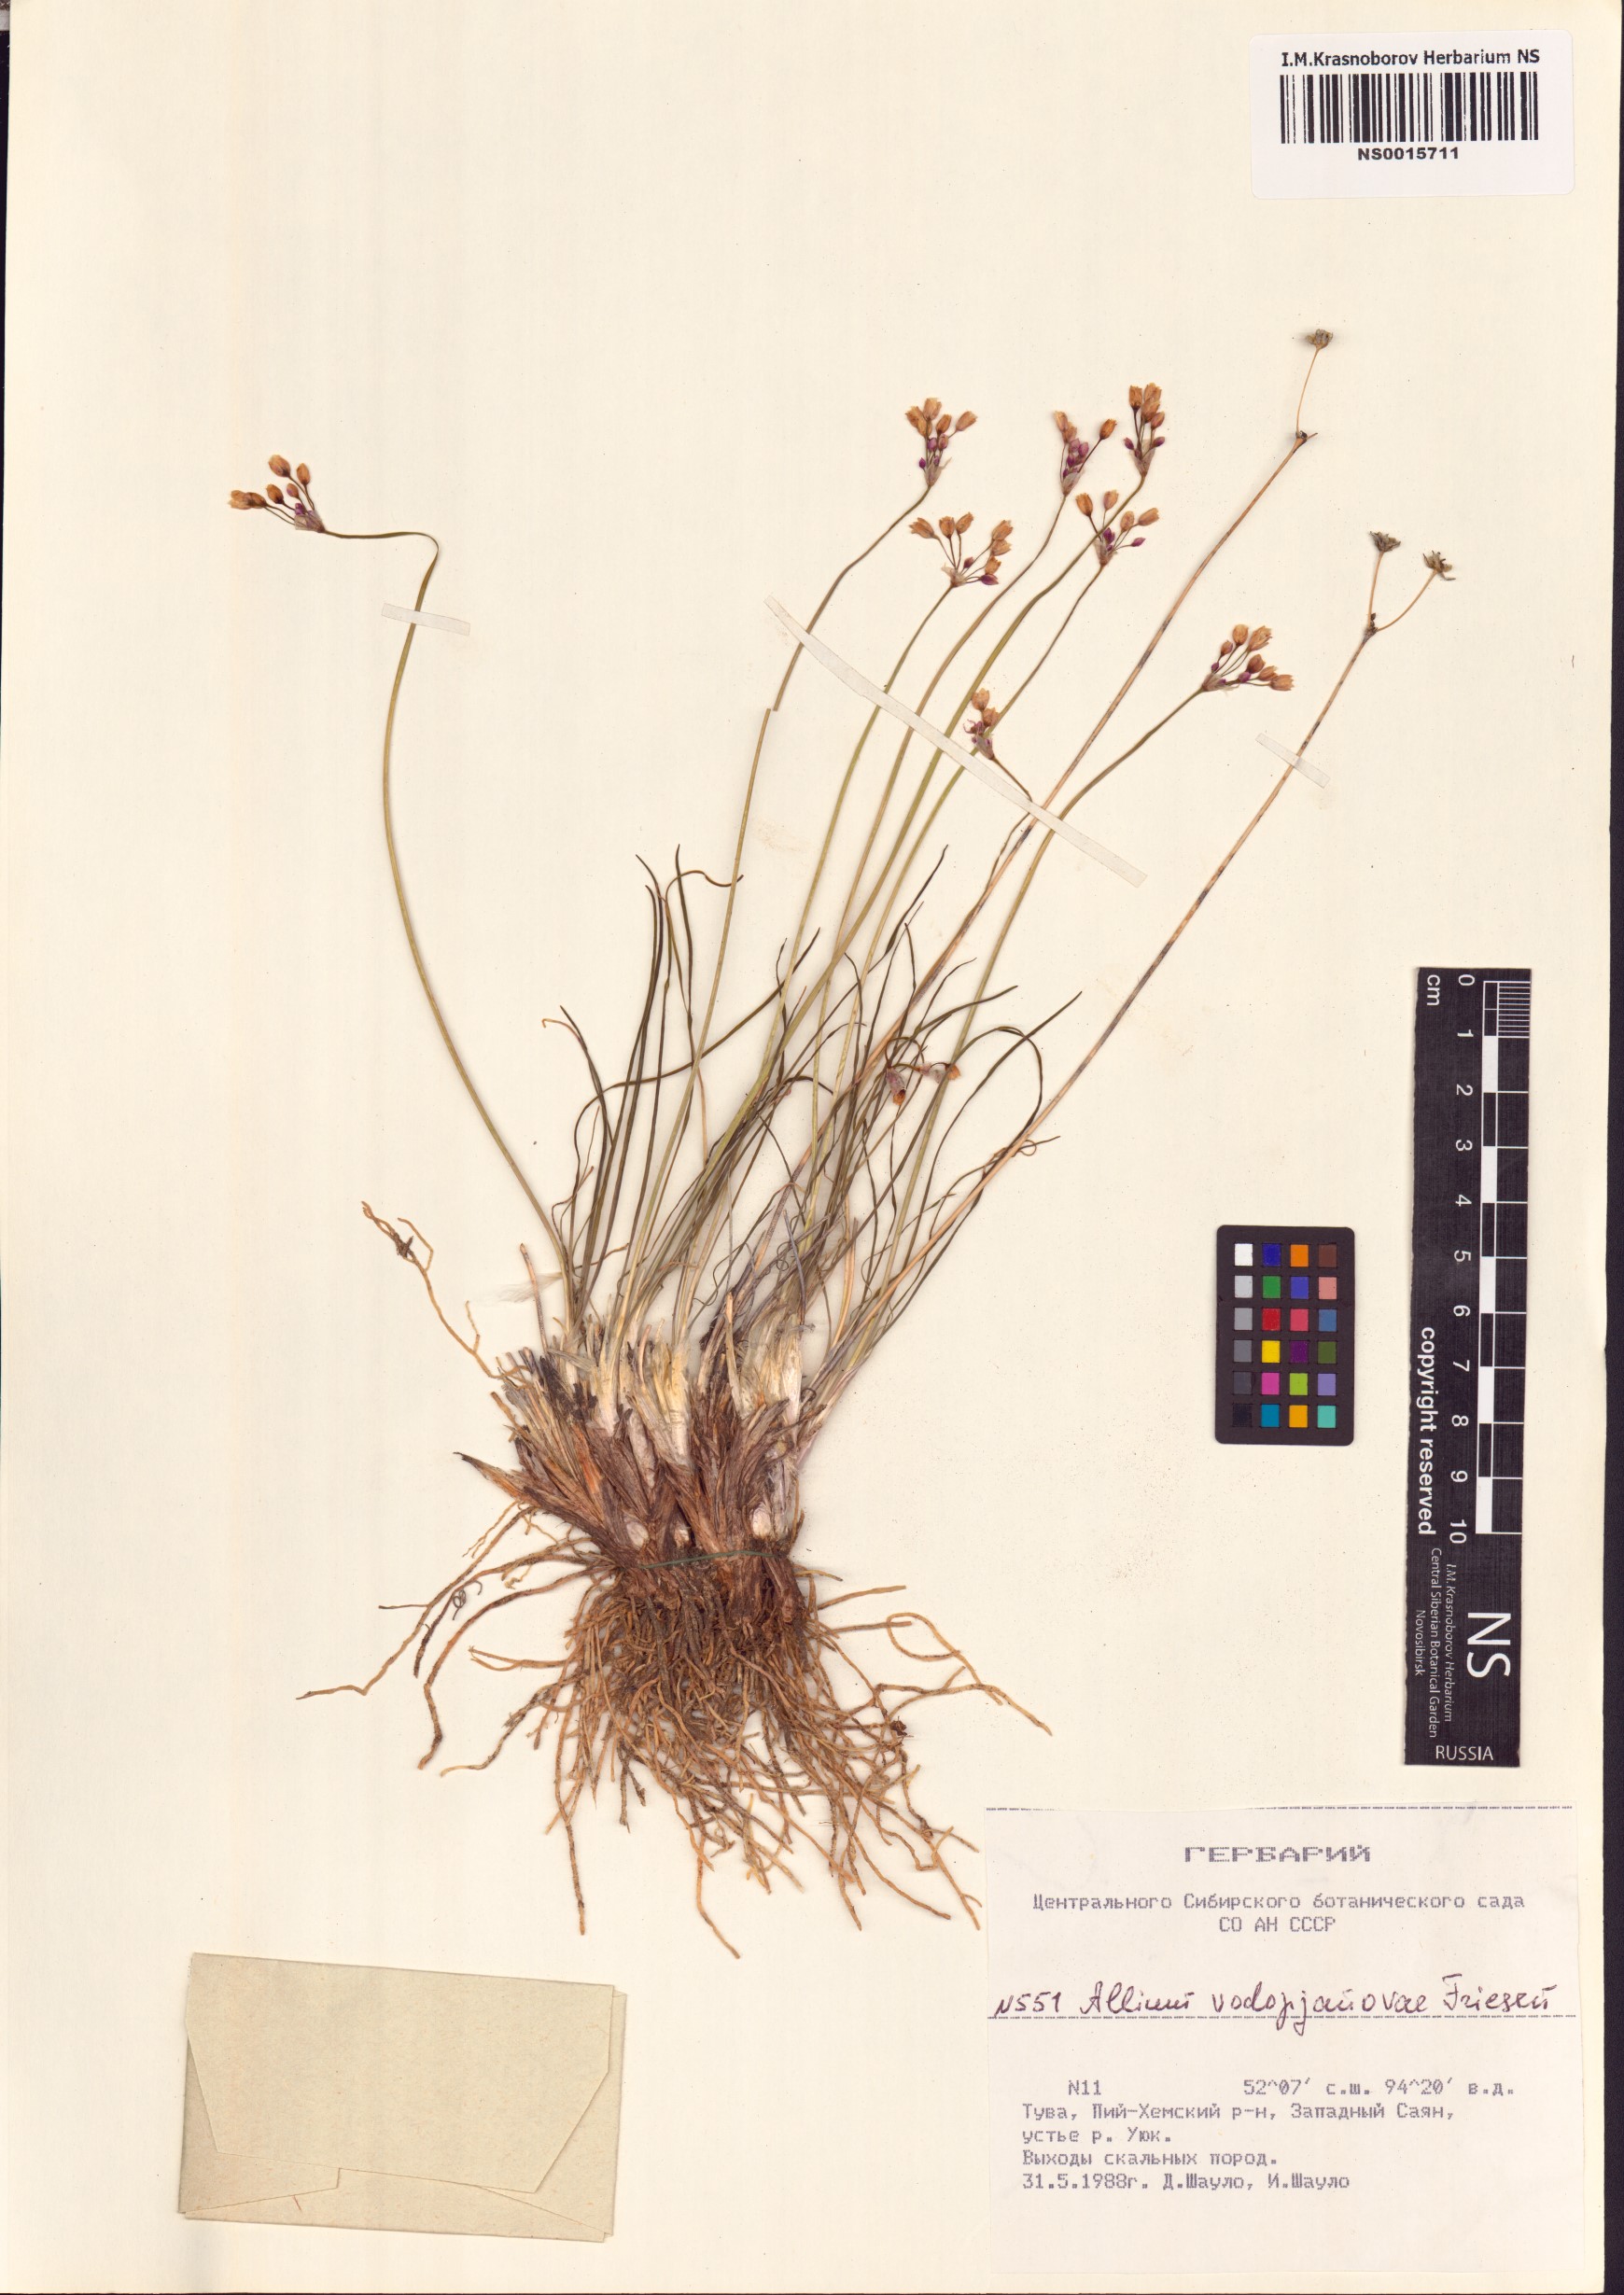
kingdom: Plantae
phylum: Tracheophyta
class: Liliopsida
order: Asparagales
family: Amaryllidaceae
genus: Allium
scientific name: Allium vodopjanovae
